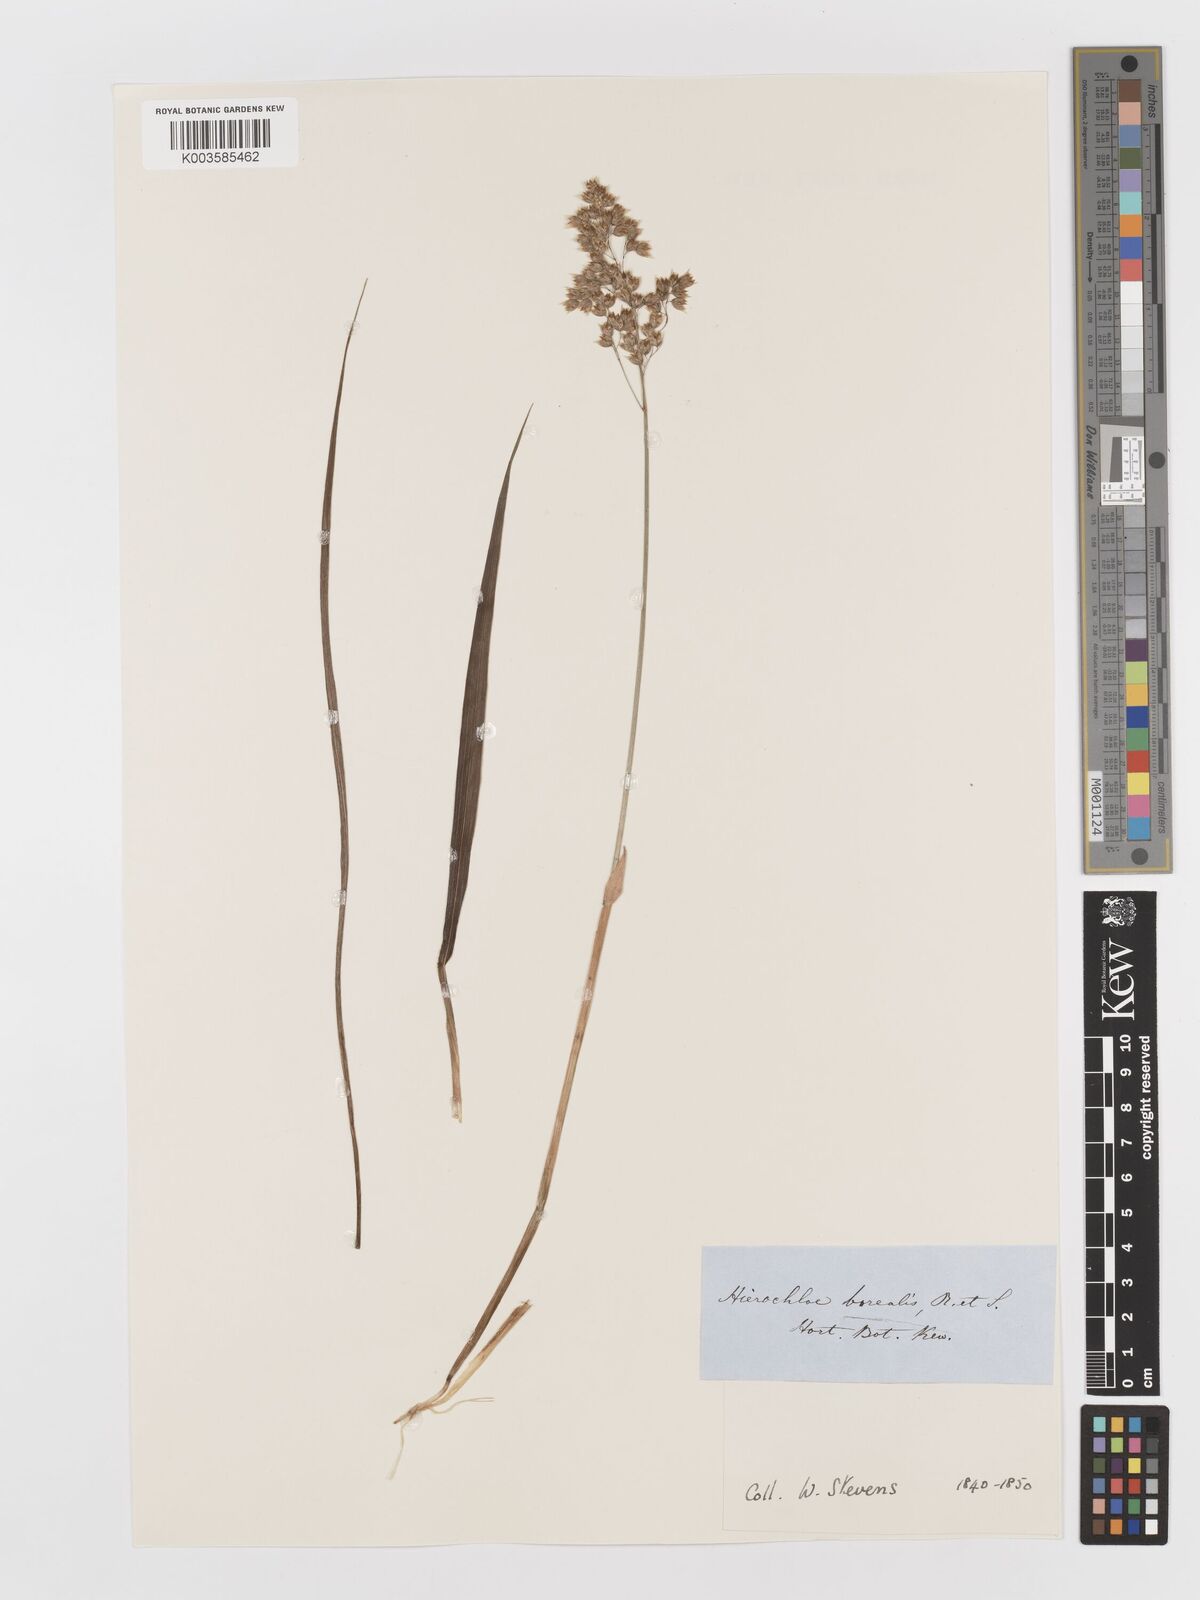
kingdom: Plantae
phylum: Tracheophyta
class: Liliopsida
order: Poales
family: Poaceae
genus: Anthoxanthum
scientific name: Anthoxanthum nitens
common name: Holy grass
